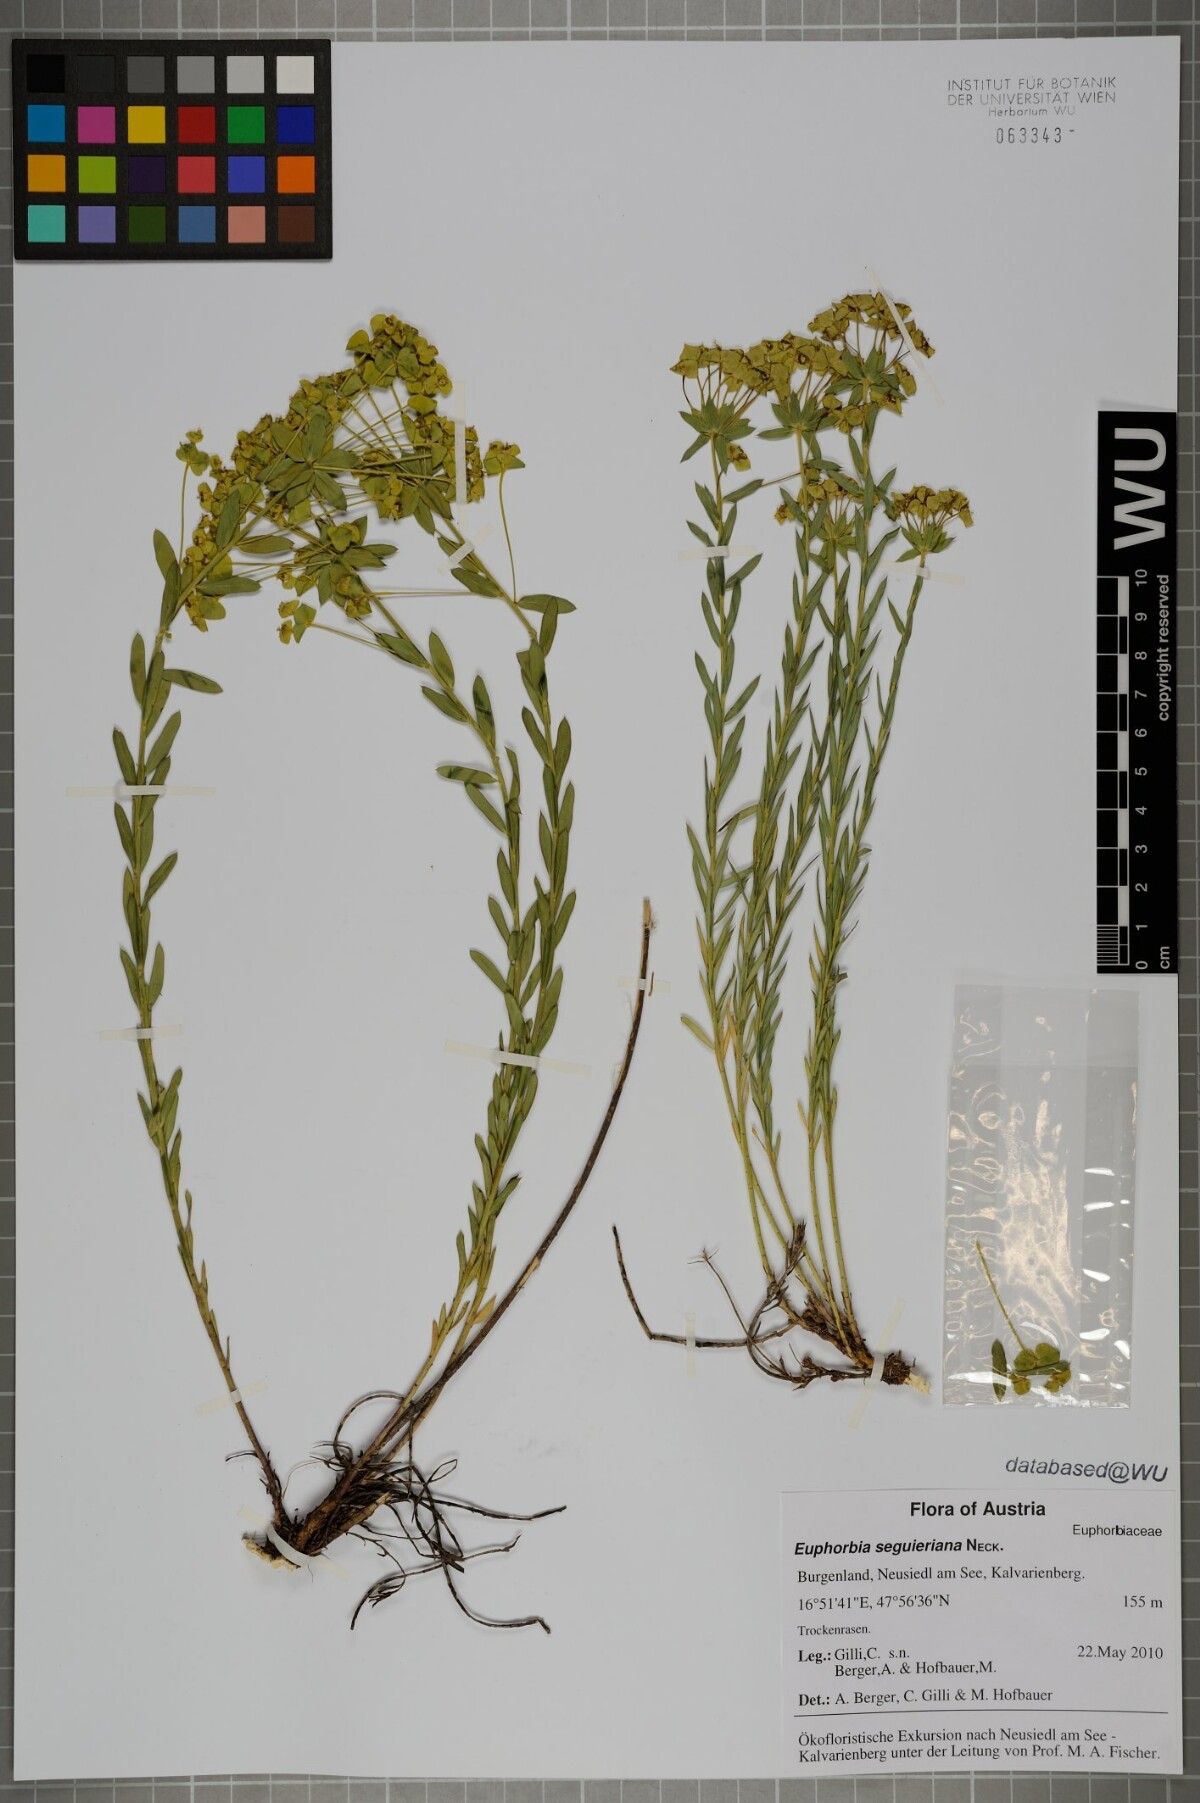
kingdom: Plantae
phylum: Tracheophyta
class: Magnoliopsida
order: Malpighiales
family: Euphorbiaceae
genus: Euphorbia
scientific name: Euphorbia seguieriana
